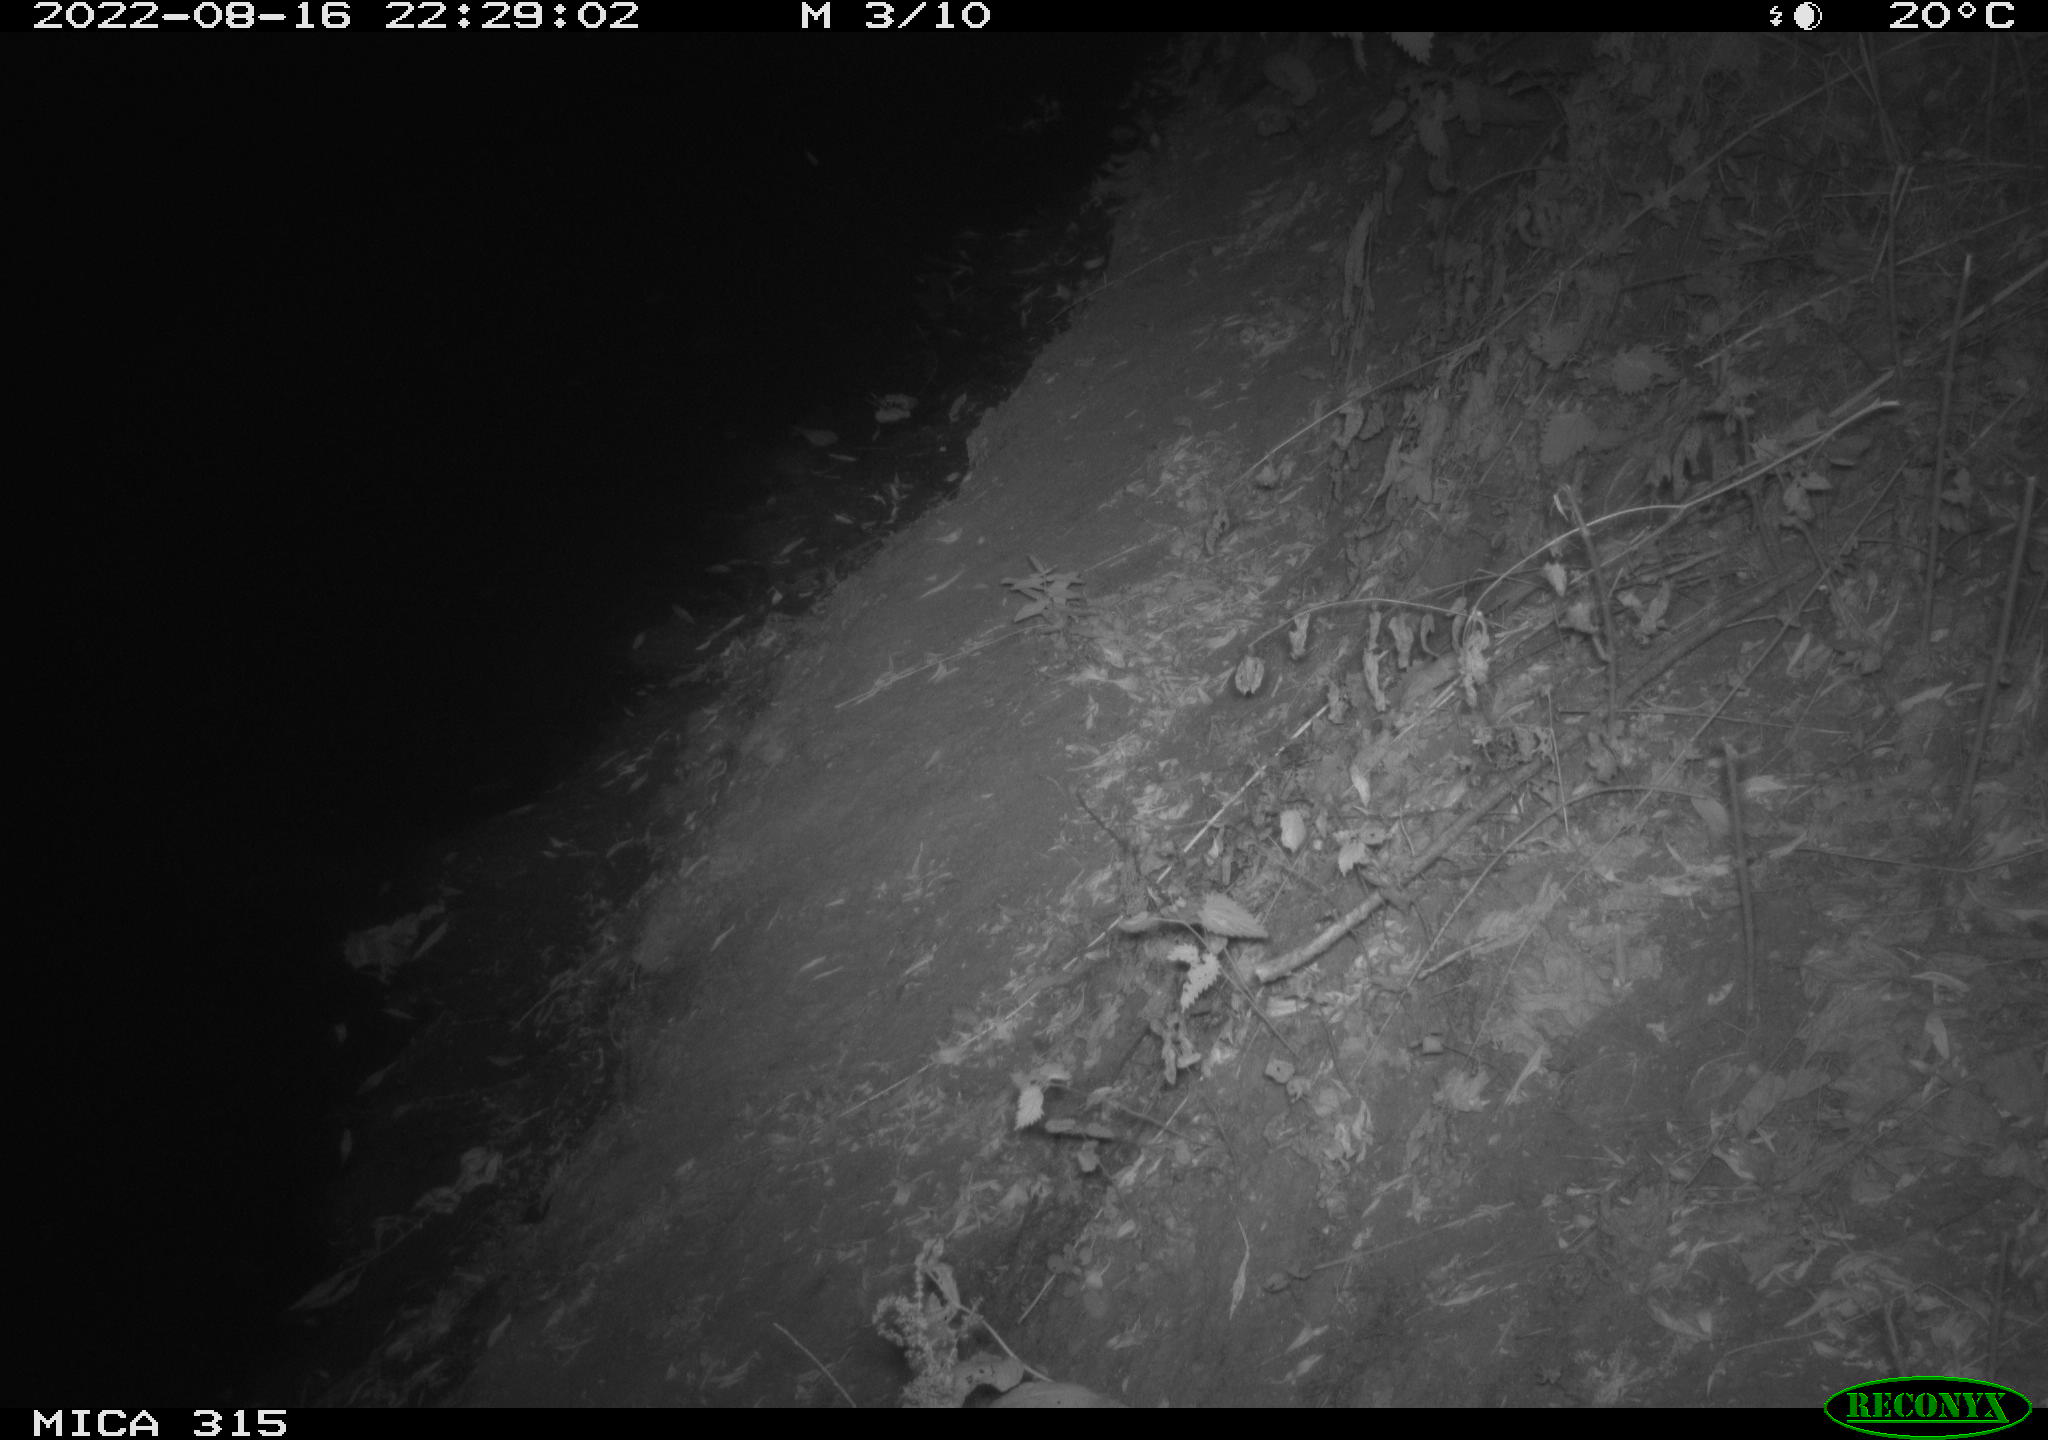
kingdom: Animalia
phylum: Chordata
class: Mammalia
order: Carnivora
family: Canidae
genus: Vulpes
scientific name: Vulpes vulpes
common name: Red fox
